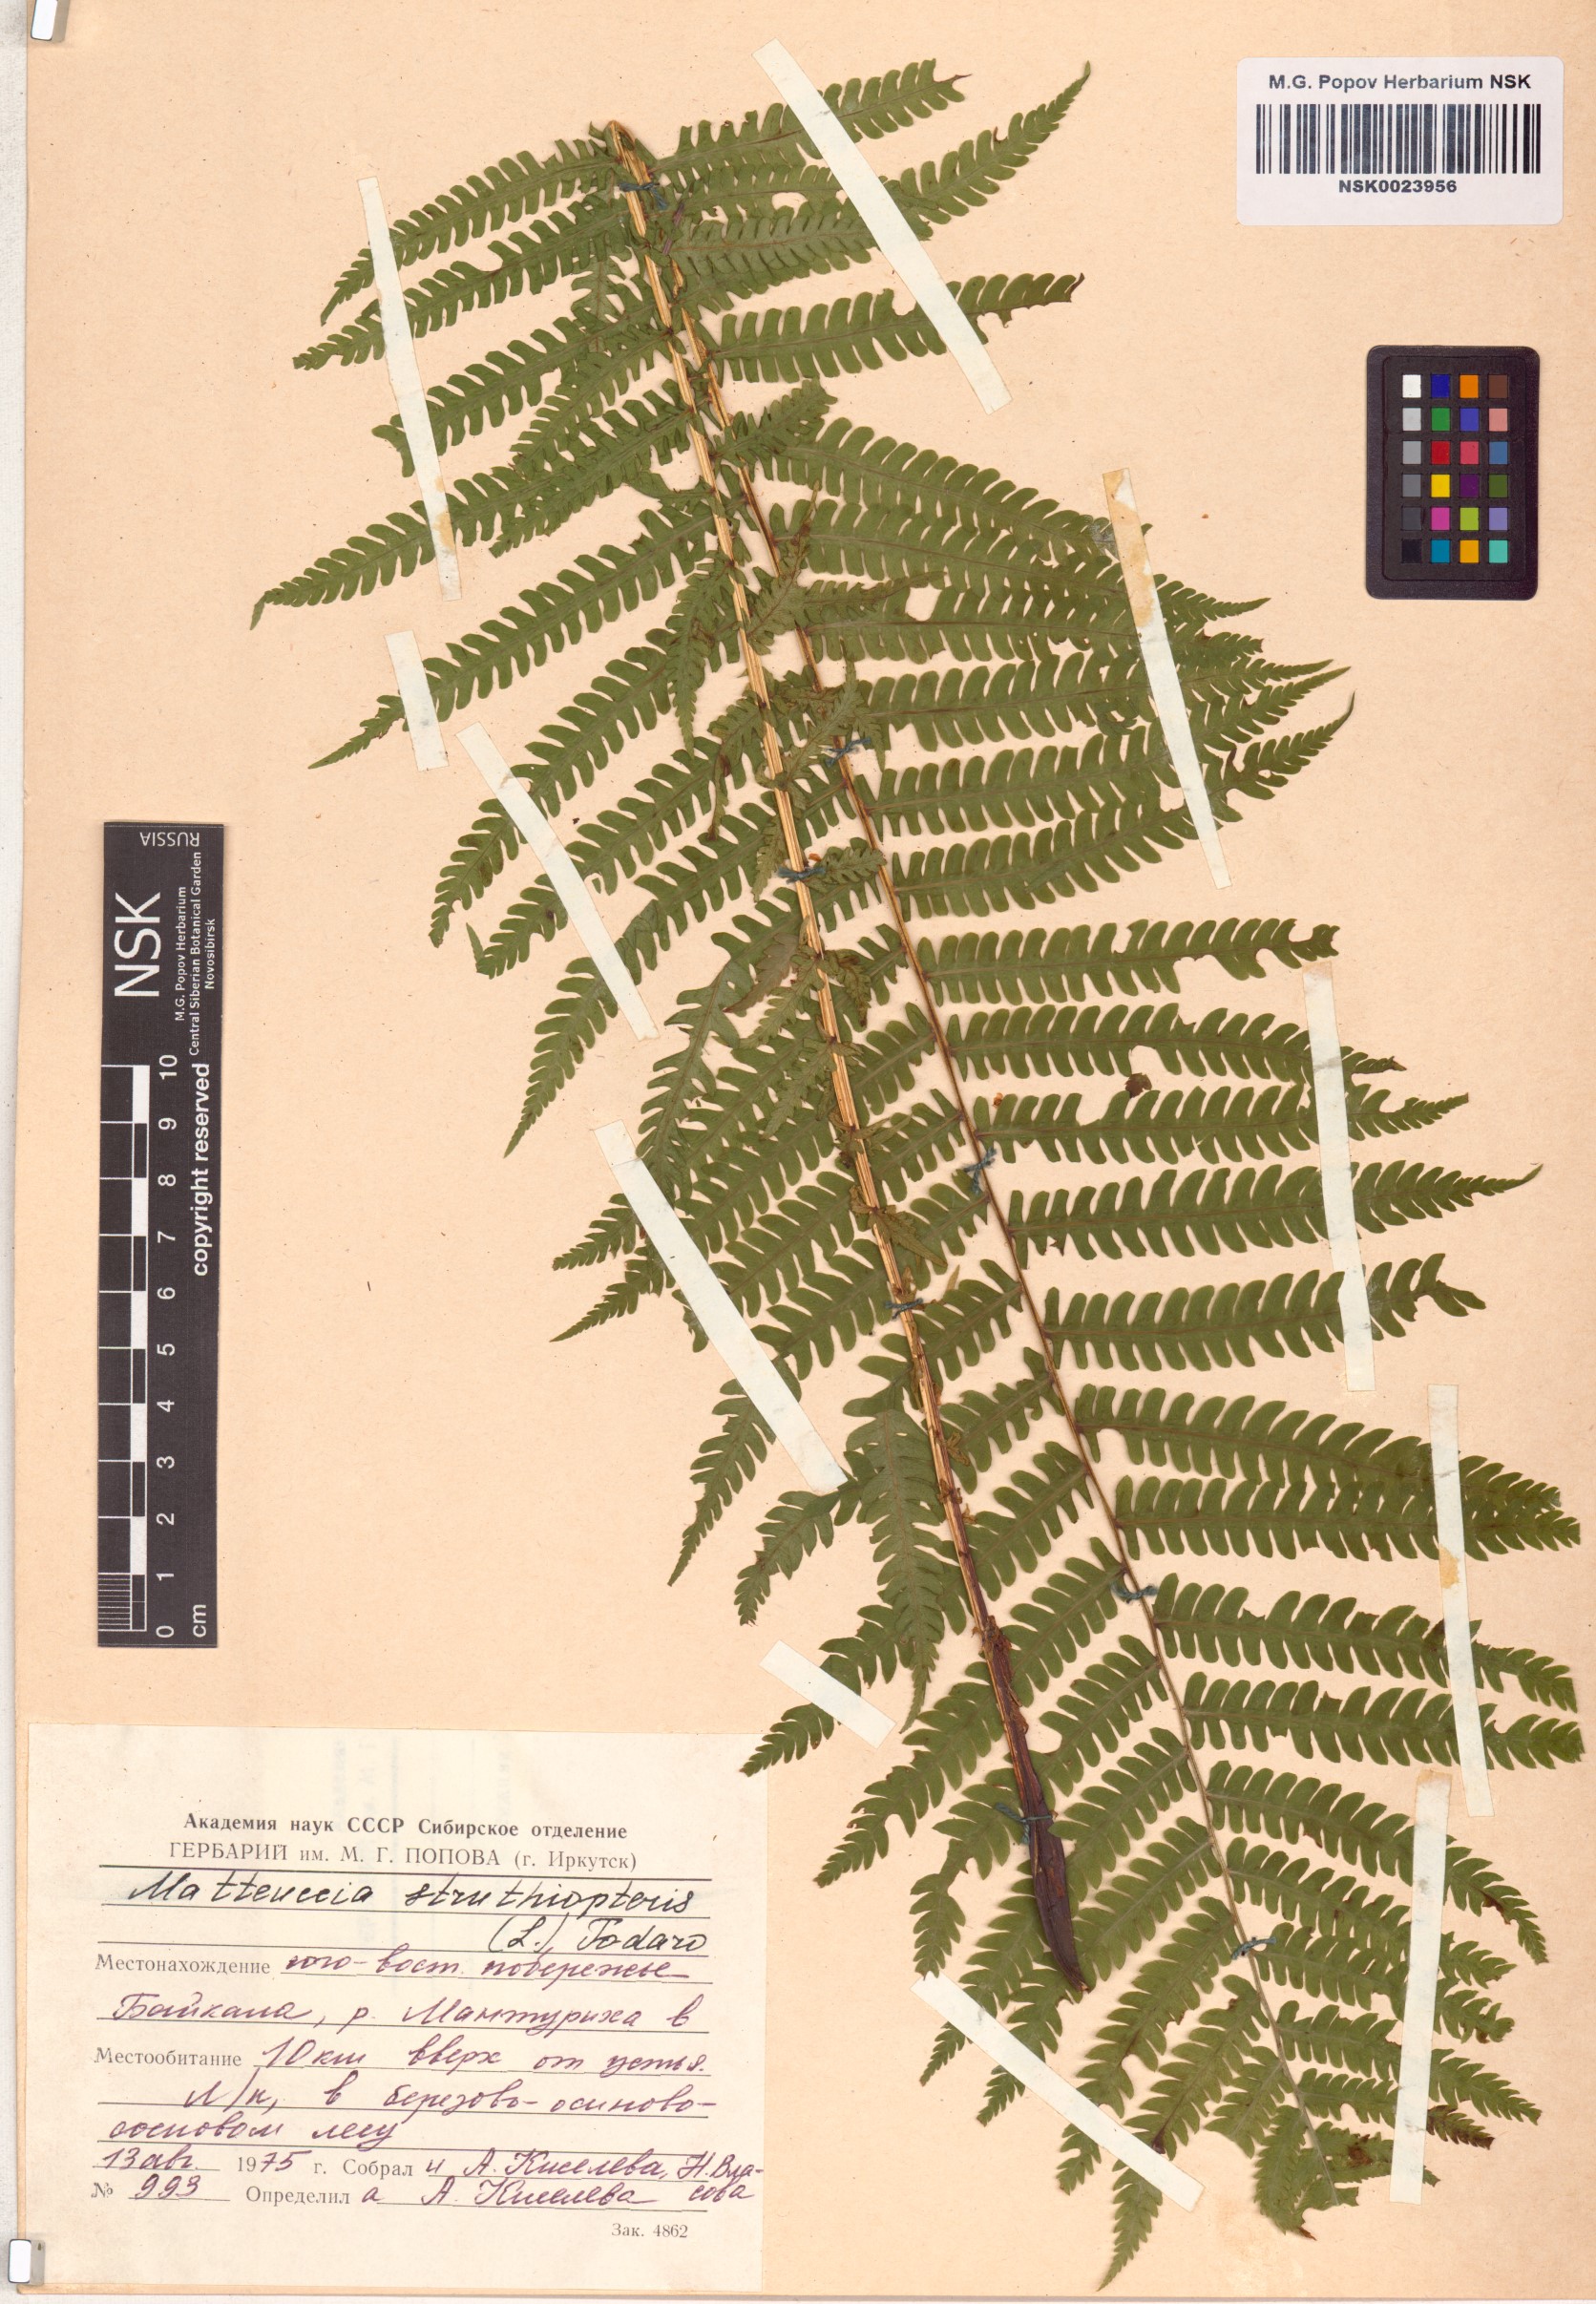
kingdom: Plantae
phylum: Tracheophyta
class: Polypodiopsida
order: Polypodiales
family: Onocleaceae
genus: Matteuccia
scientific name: Matteuccia struthiopteris
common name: Ostrich fern
